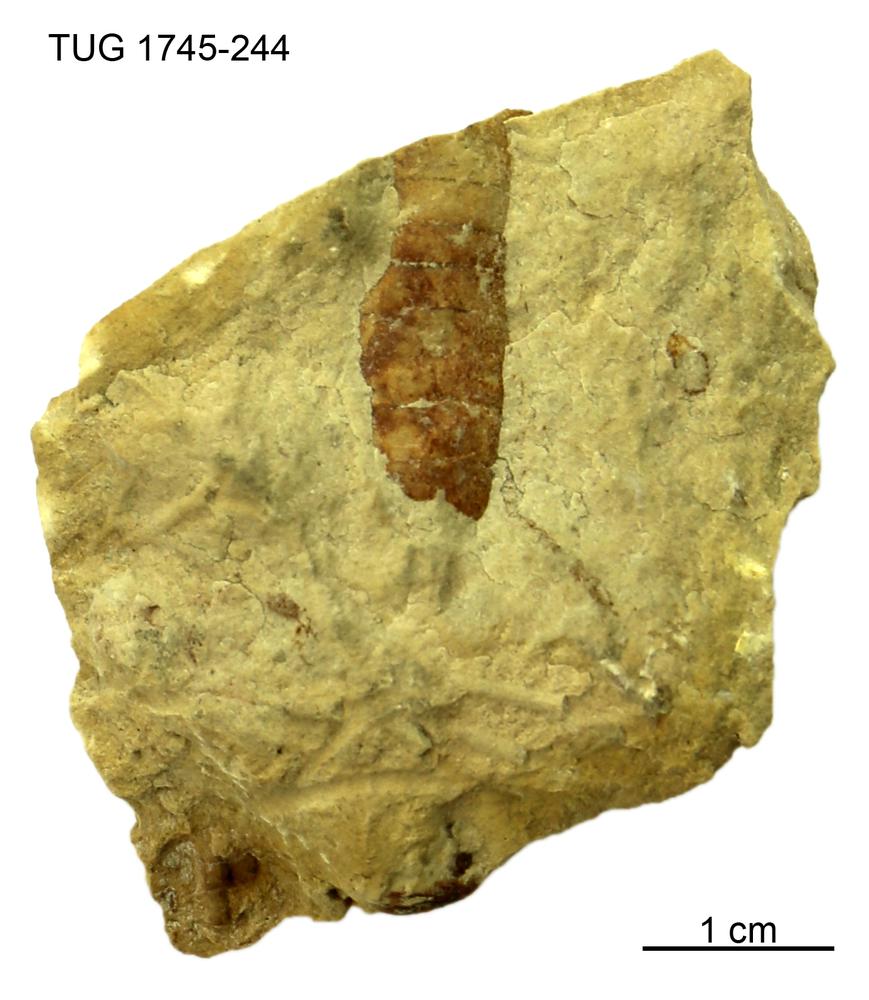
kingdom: Animalia
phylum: Mollusca
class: Cephalopoda
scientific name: Cephalopoda
